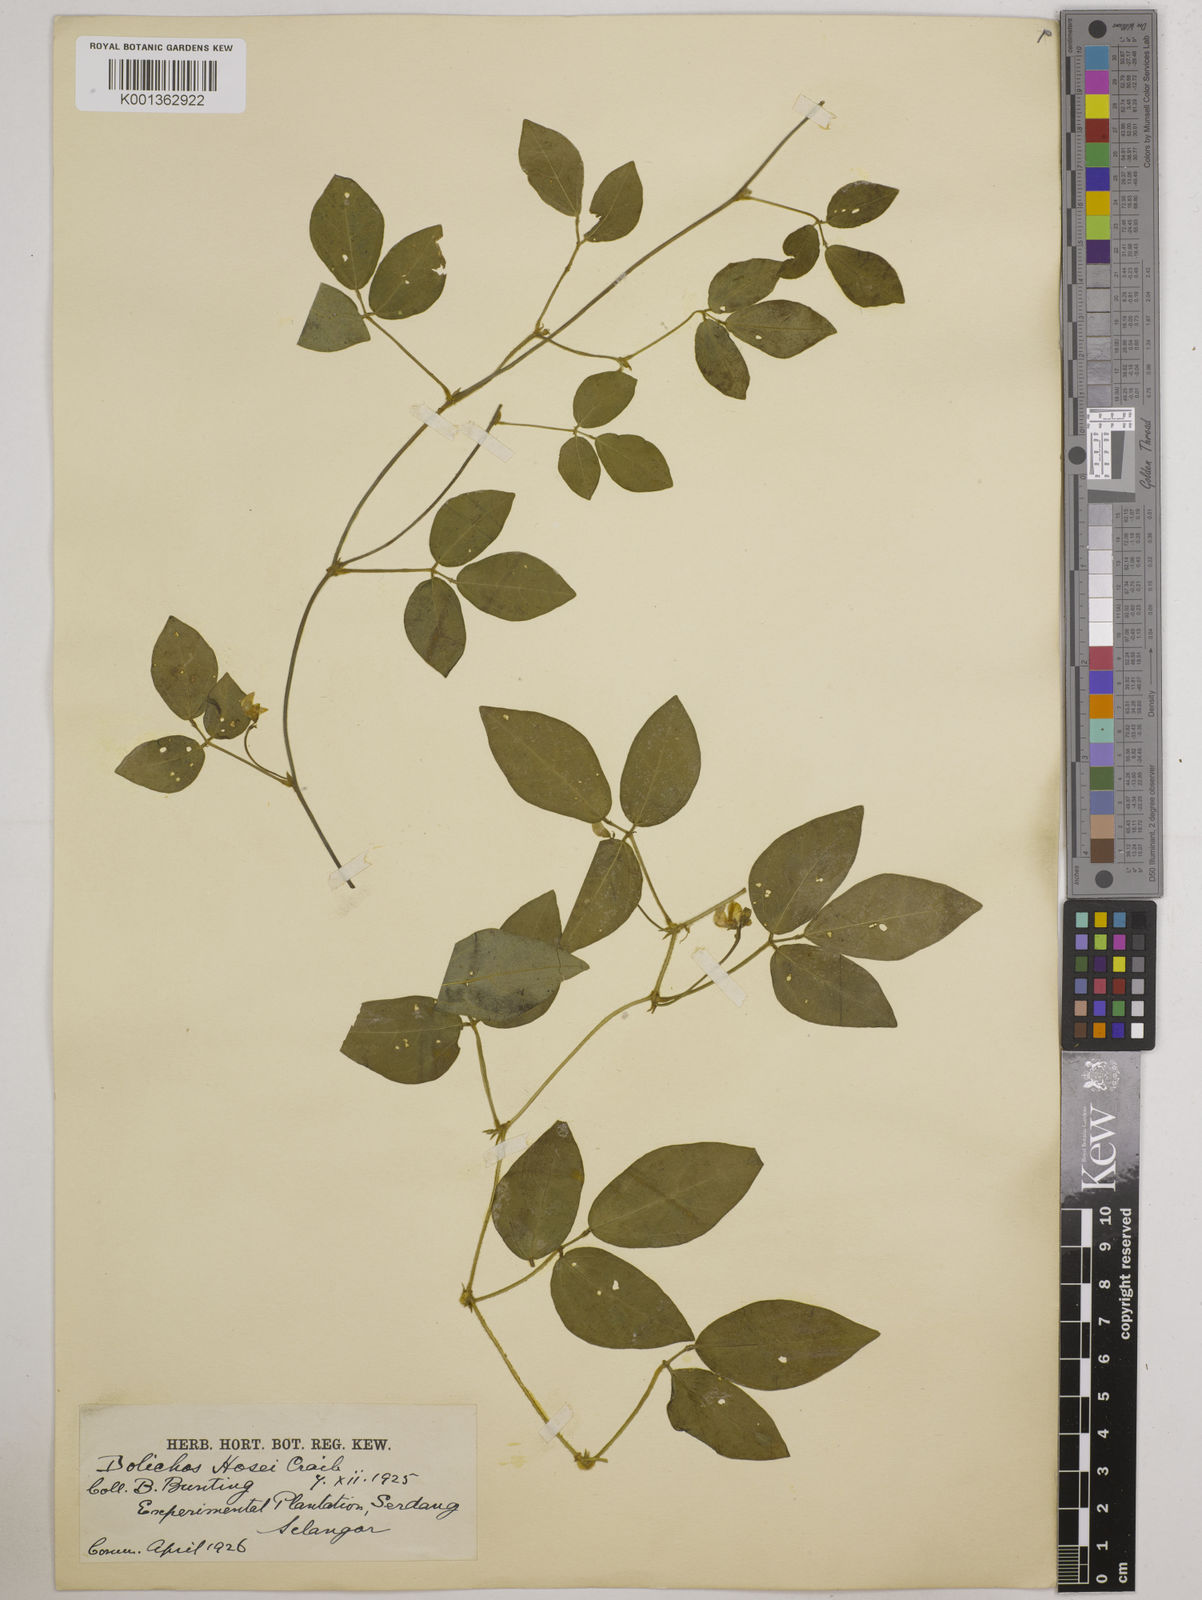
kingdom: Plantae
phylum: Tracheophyta
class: Magnoliopsida
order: Fabales
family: Fabaceae
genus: Vigna
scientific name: Vigna hosei
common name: Sarawak-bean
